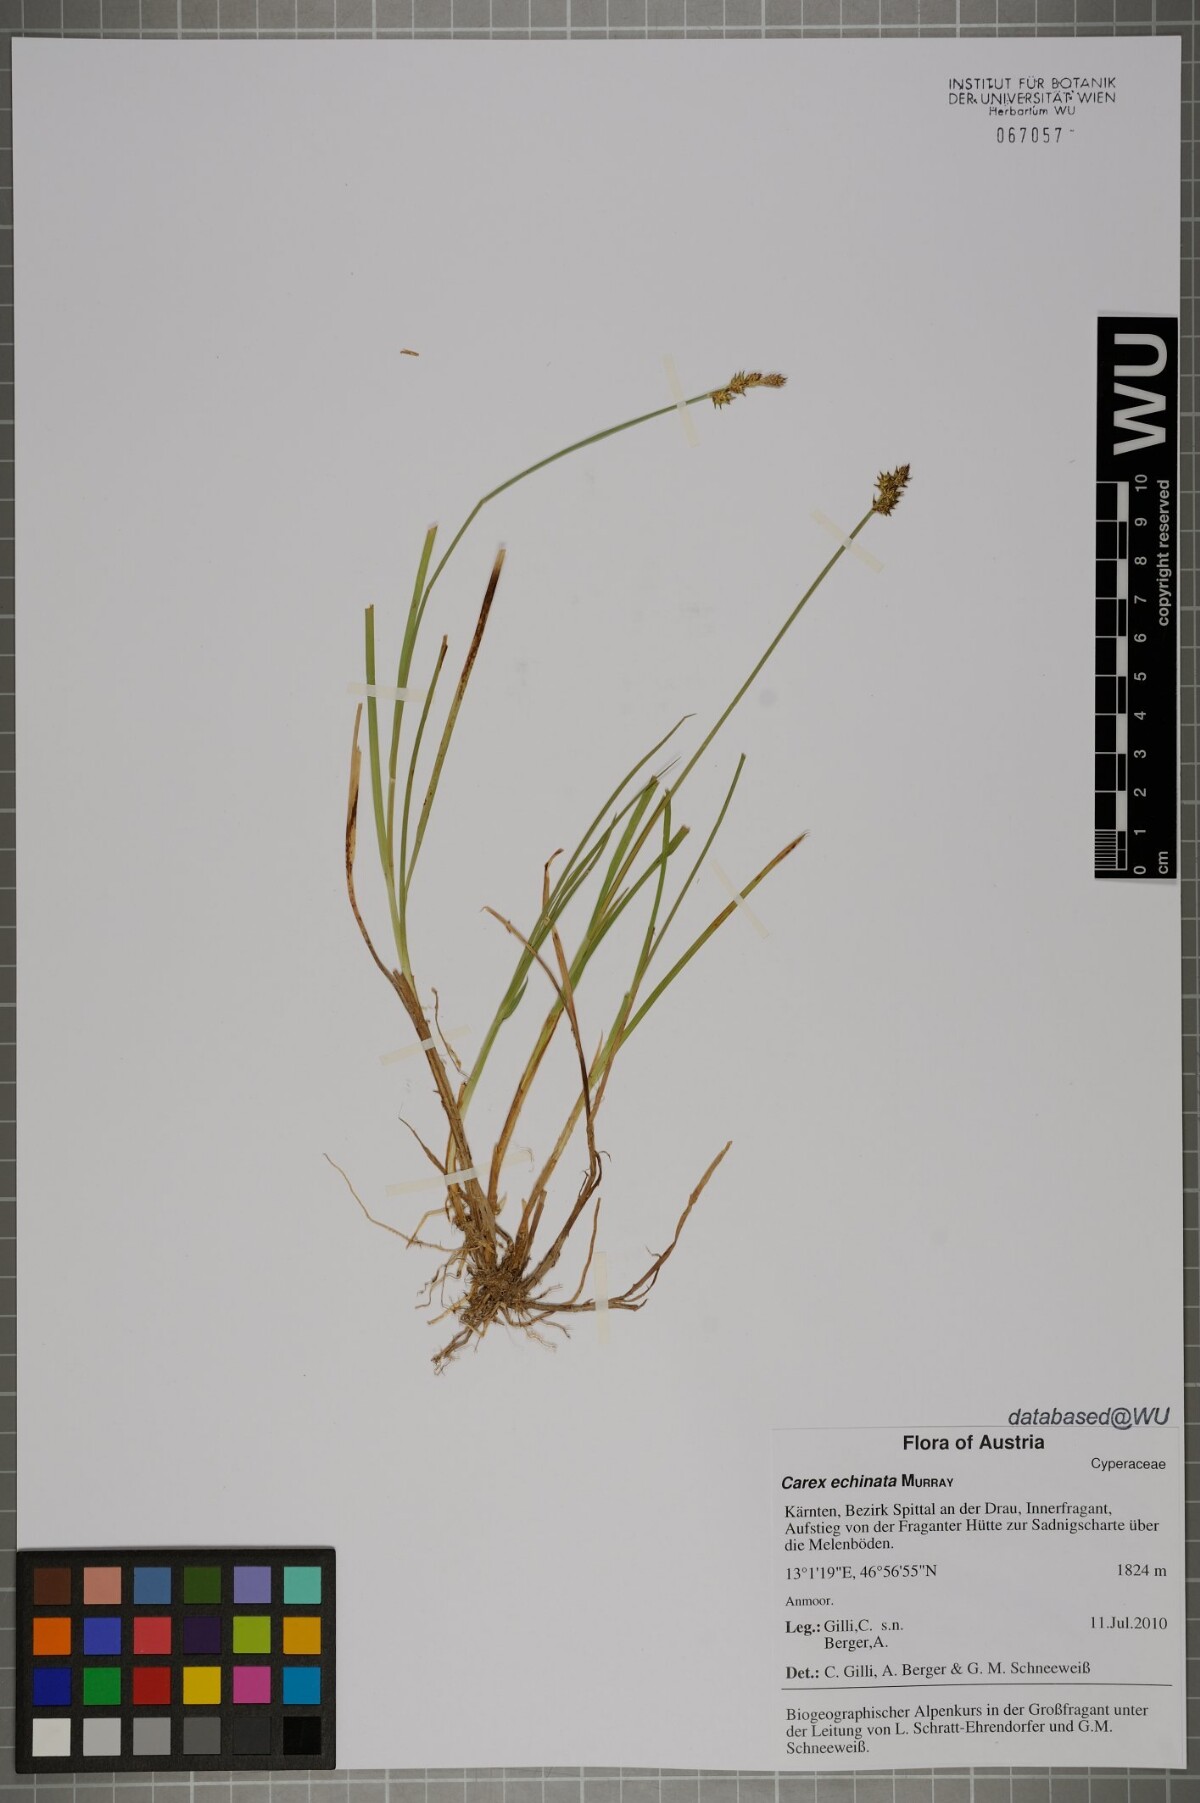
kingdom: Plantae
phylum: Tracheophyta
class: Liliopsida
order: Poales
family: Cyperaceae
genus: Carex
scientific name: Carex echinata
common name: Star sedge
